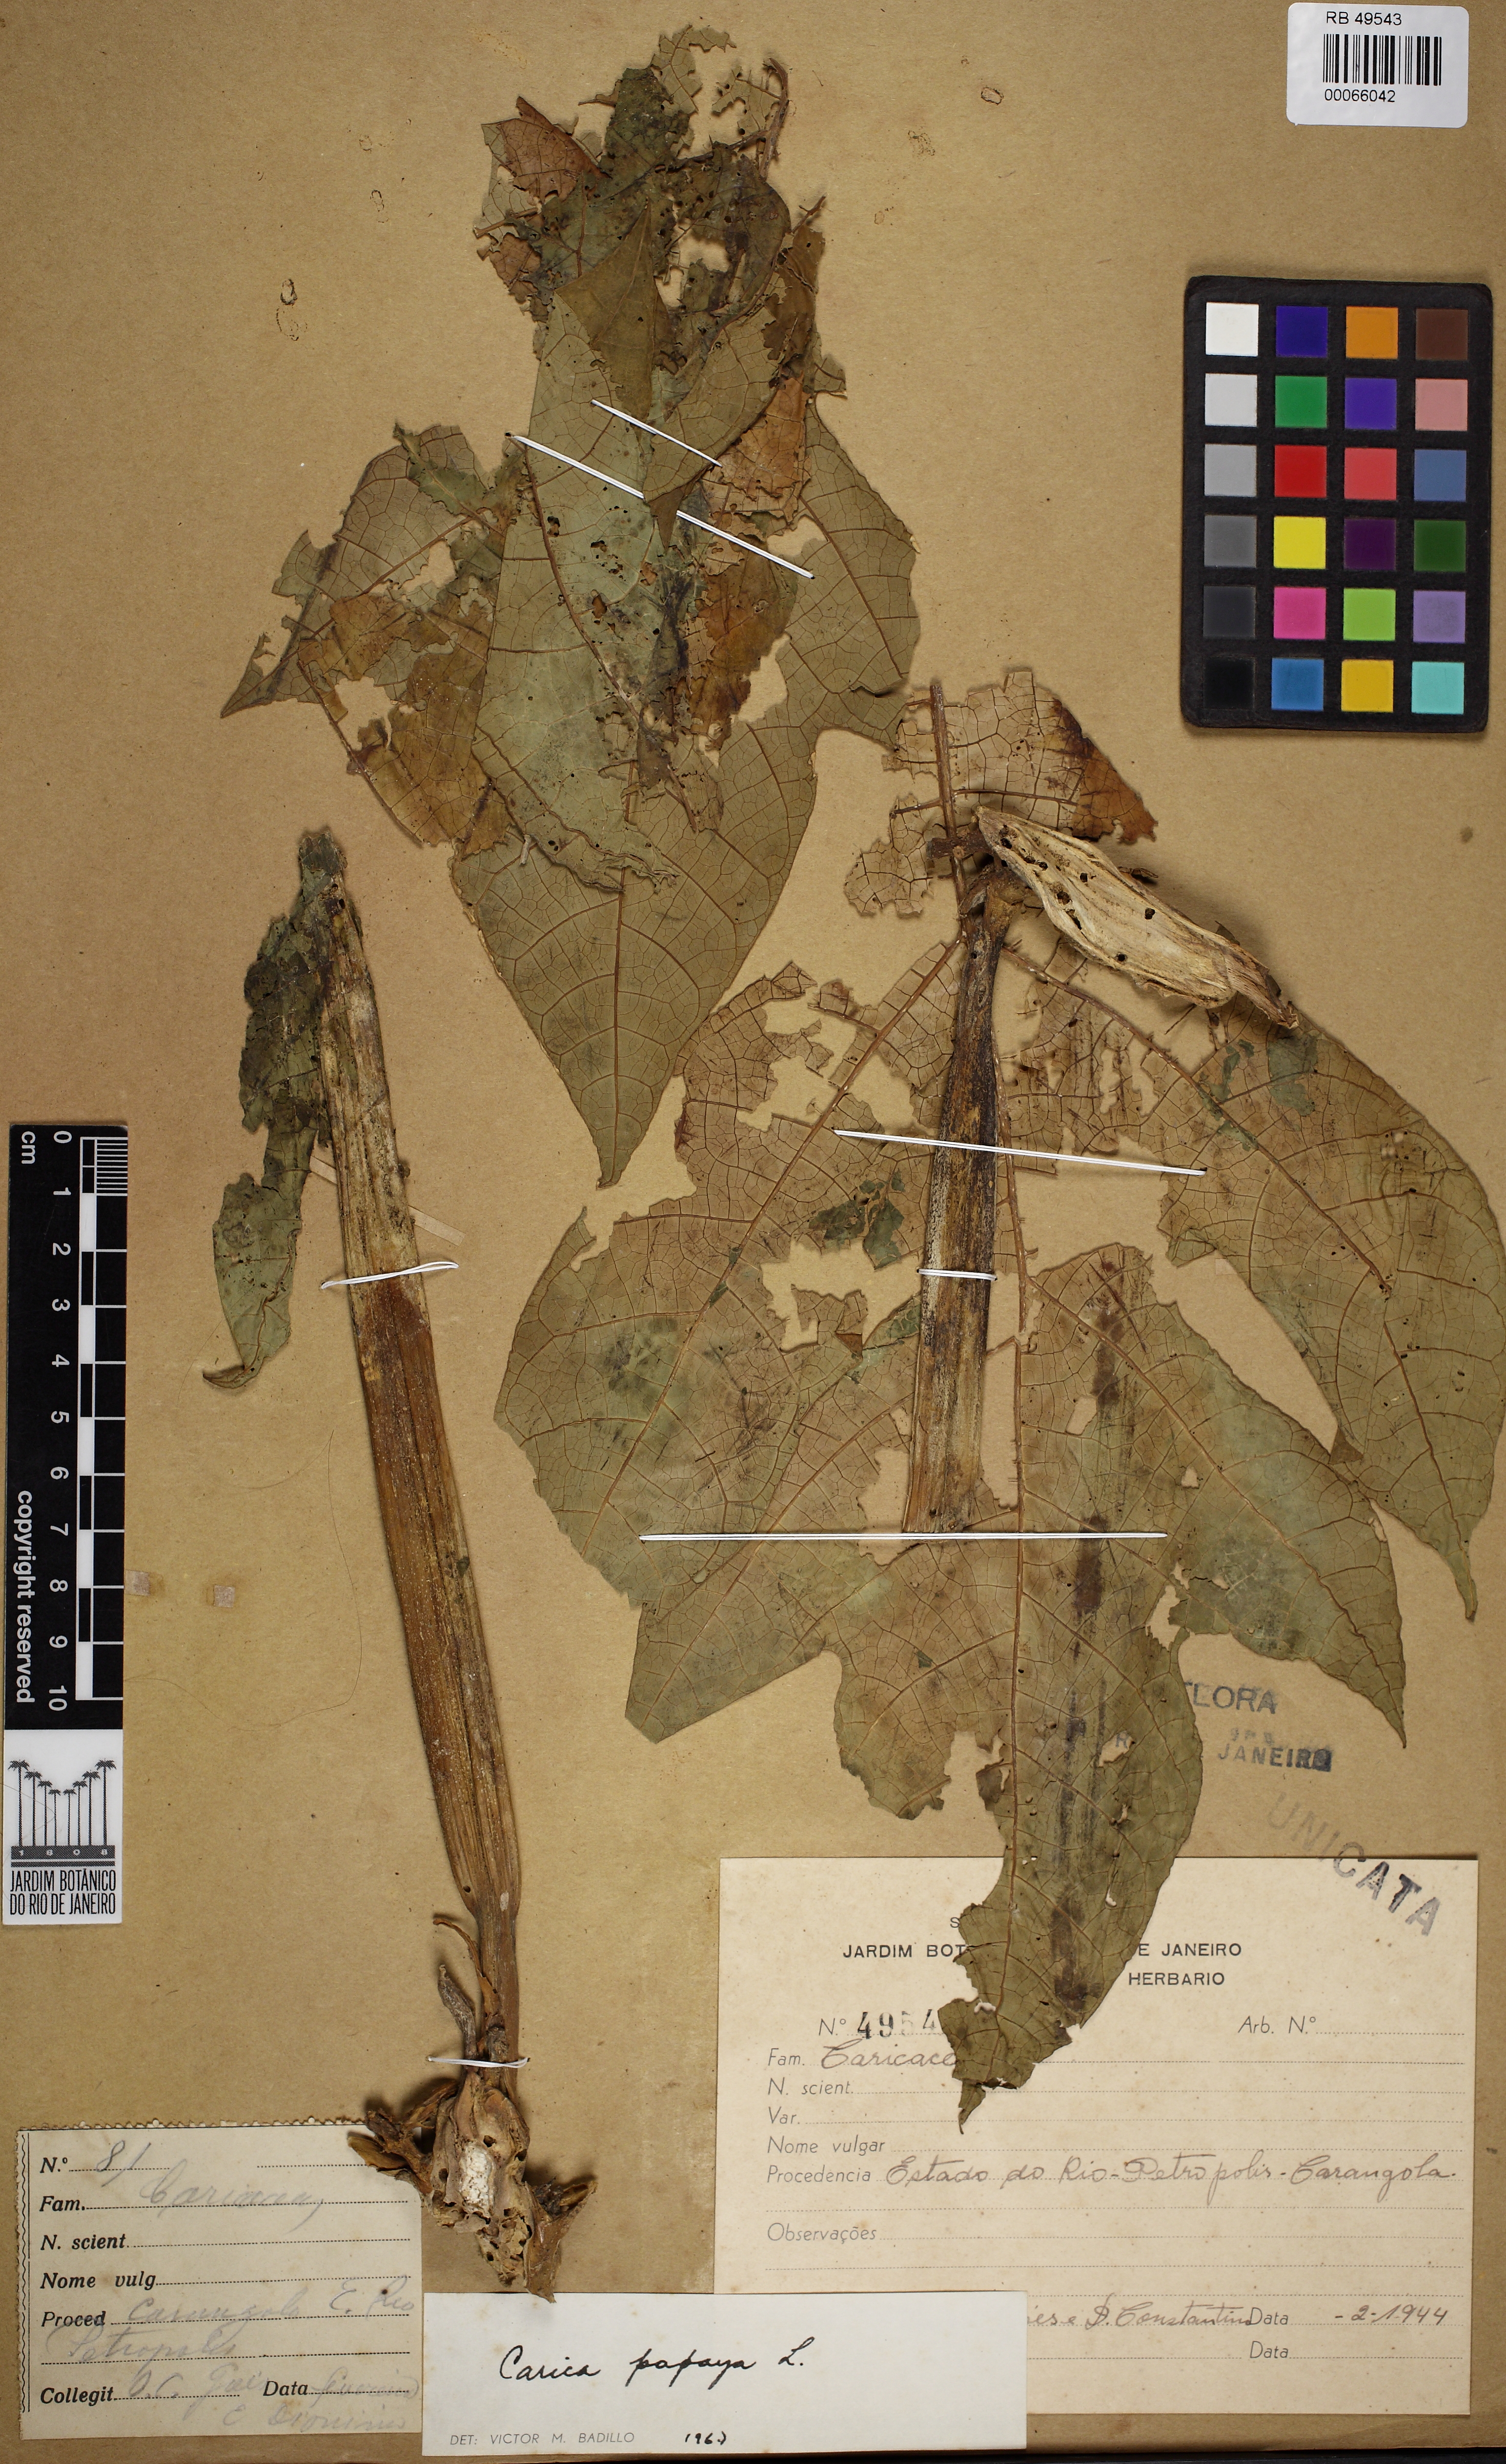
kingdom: Plantae
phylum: Tracheophyta
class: Magnoliopsida
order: Brassicales
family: Caricaceae
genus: Carica
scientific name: Carica papaya
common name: Papaya
